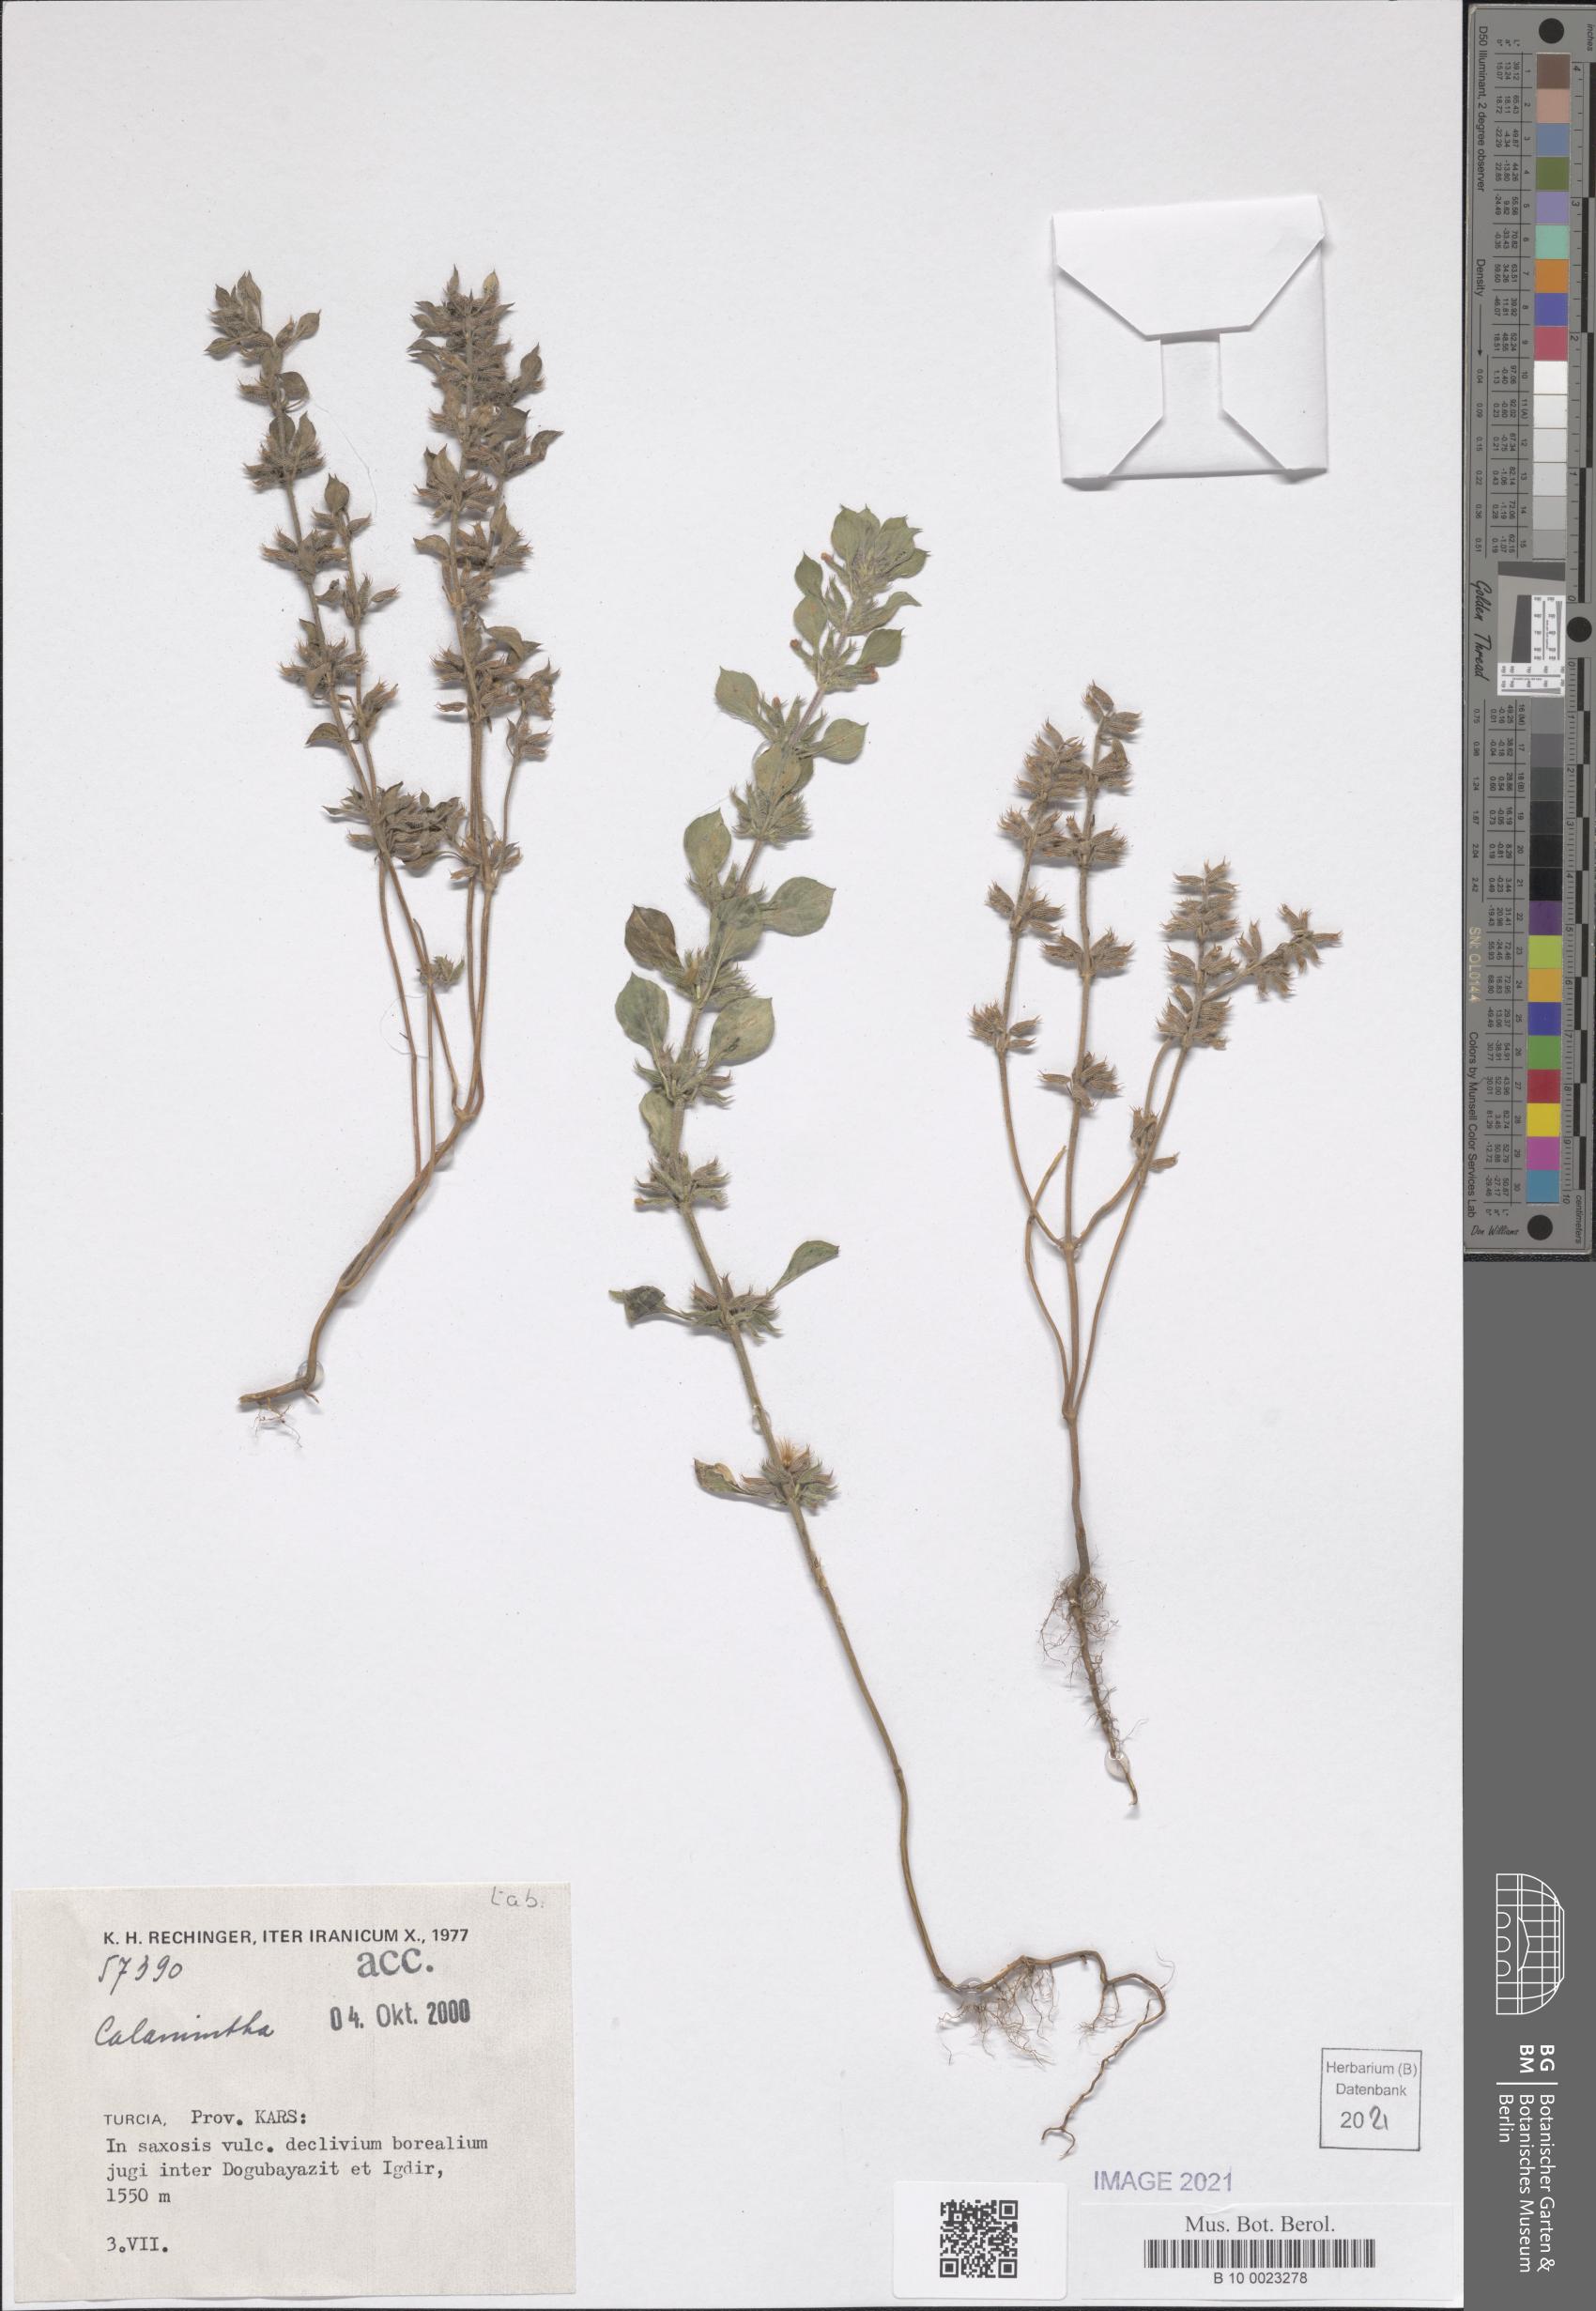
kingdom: Plantae
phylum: Tracheophyta
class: Magnoliopsida
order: Lamiales
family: Lamiaceae
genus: Clinopodium
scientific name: Clinopodium alpinum
